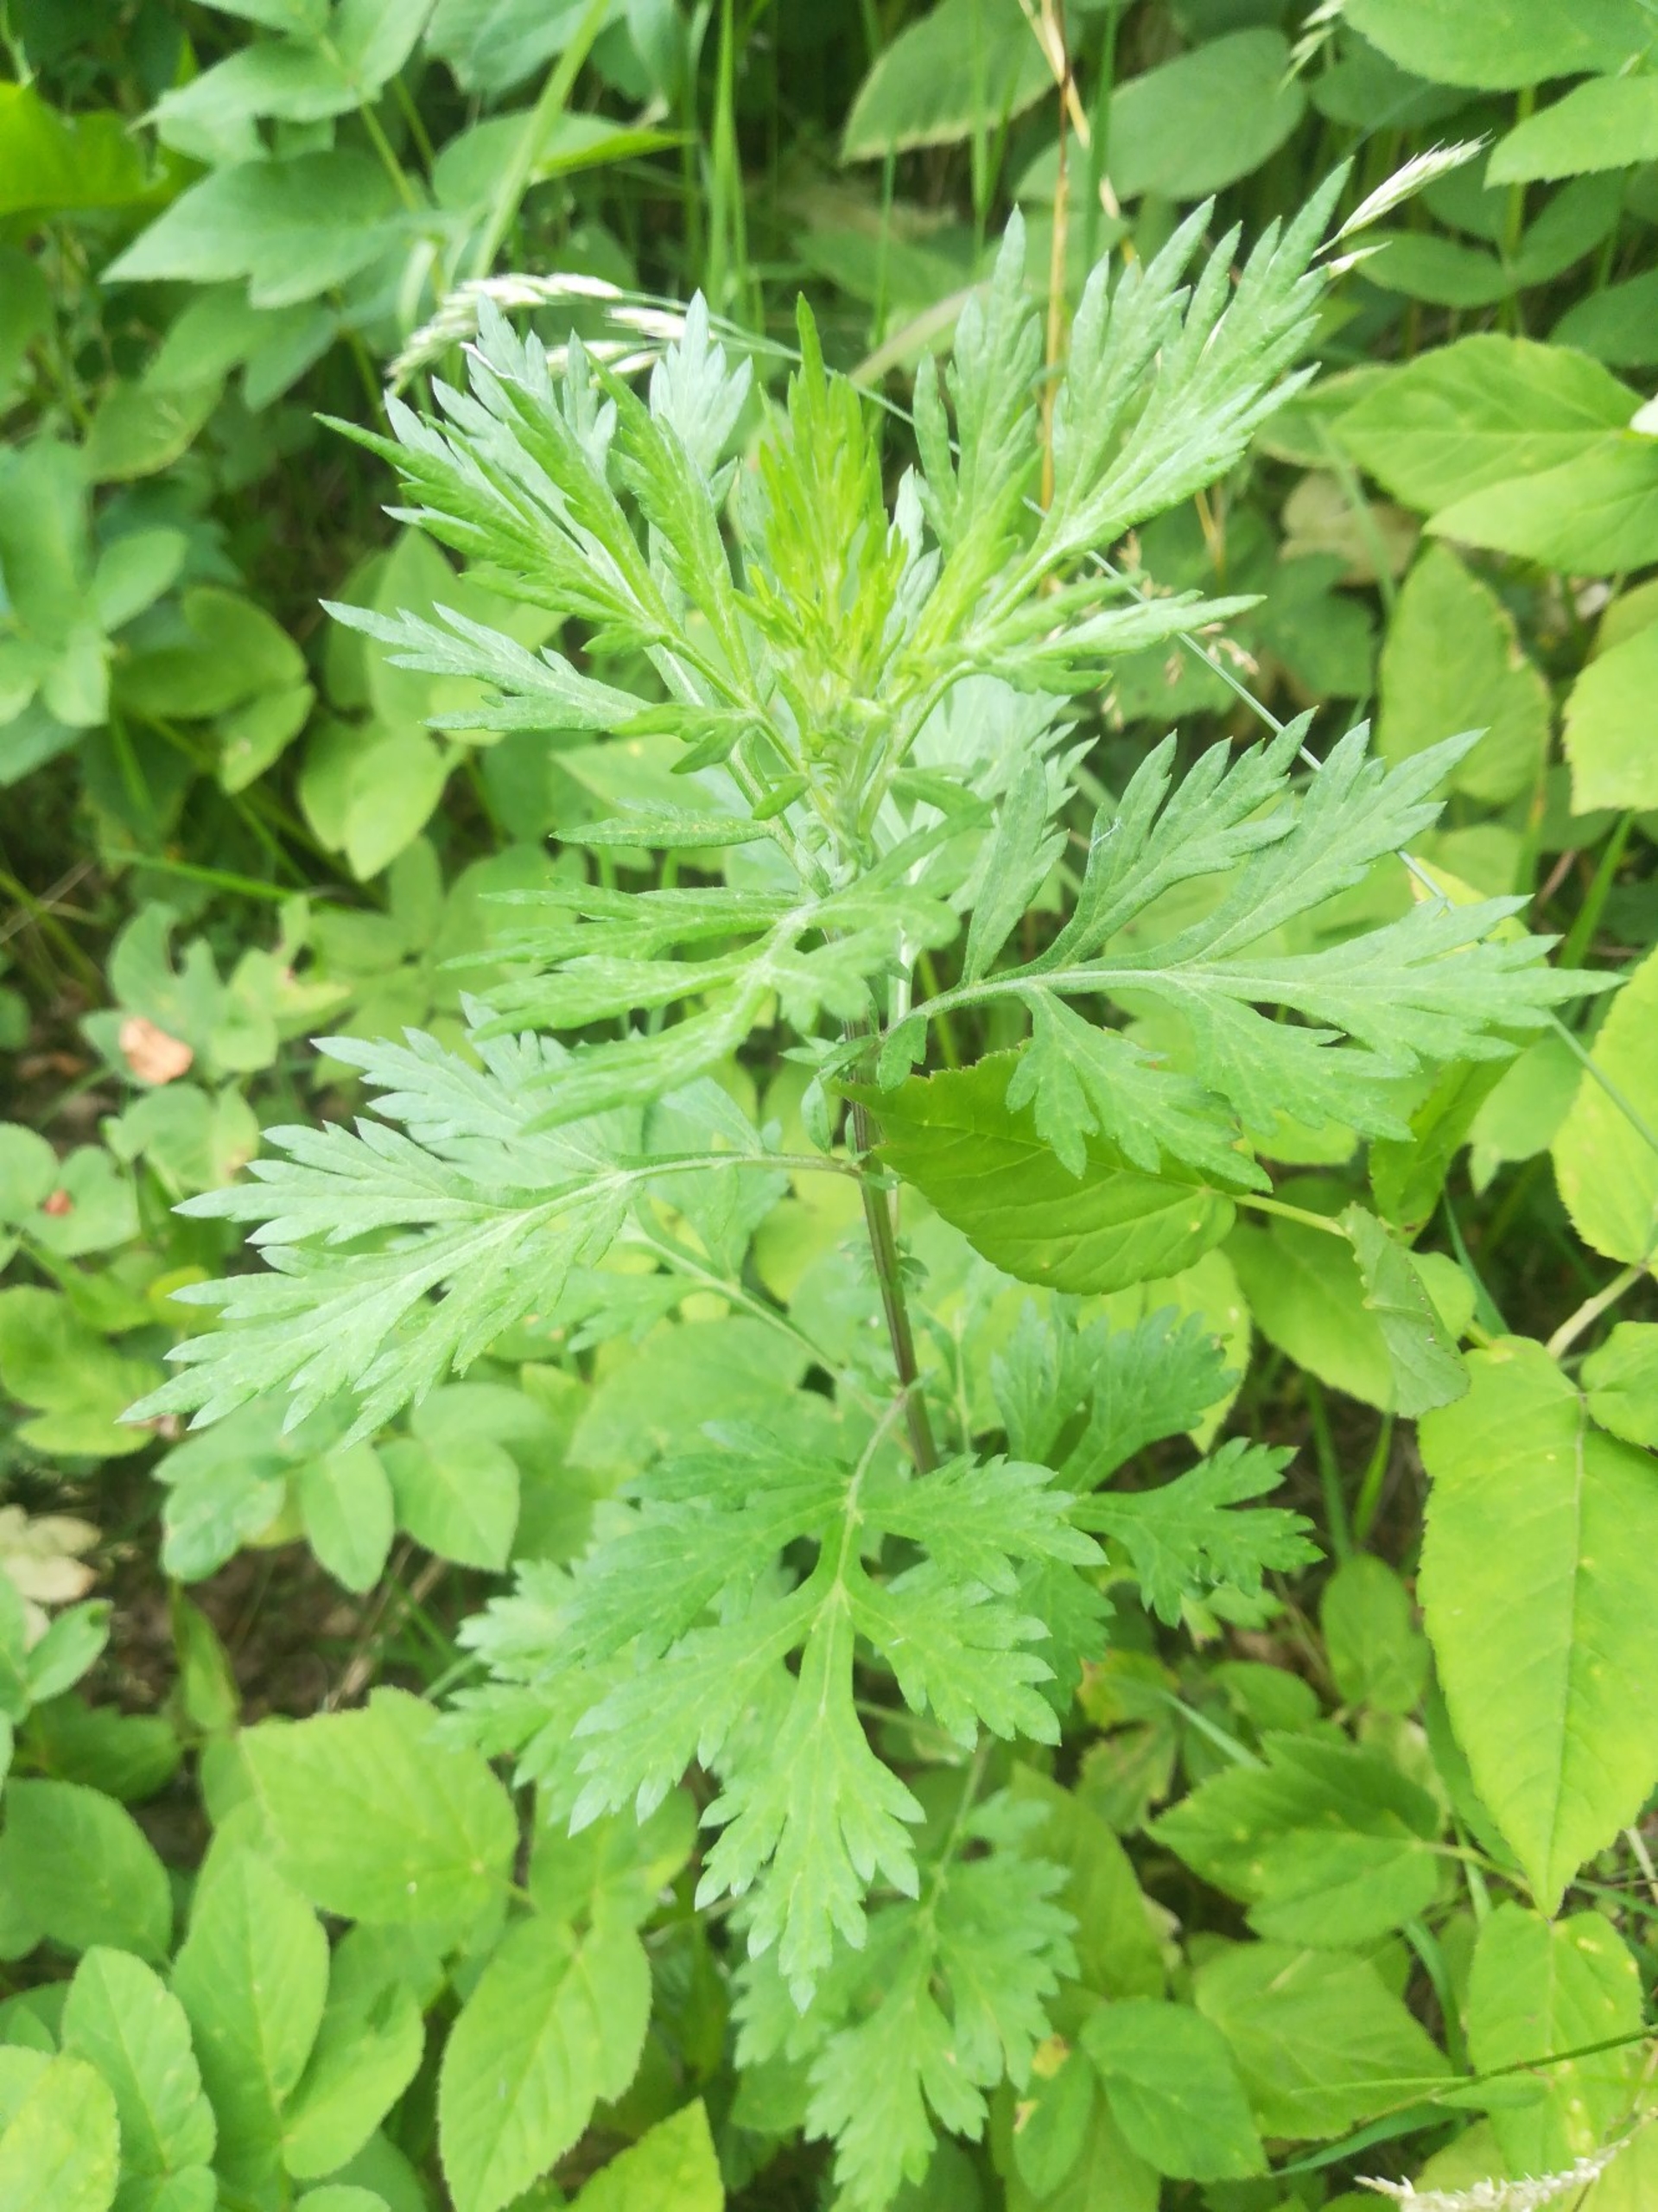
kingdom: Plantae
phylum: Tracheophyta
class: Magnoliopsida
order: Asterales
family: Asteraceae
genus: Artemisia
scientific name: Artemisia vulgaris
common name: Grå-bynke
